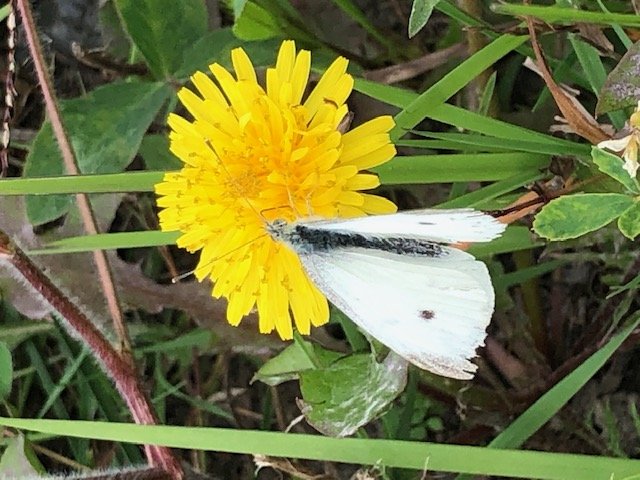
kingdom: Animalia
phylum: Arthropoda
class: Insecta
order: Lepidoptera
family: Pieridae
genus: Pieris
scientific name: Pieris rapae
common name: Cabbage White
